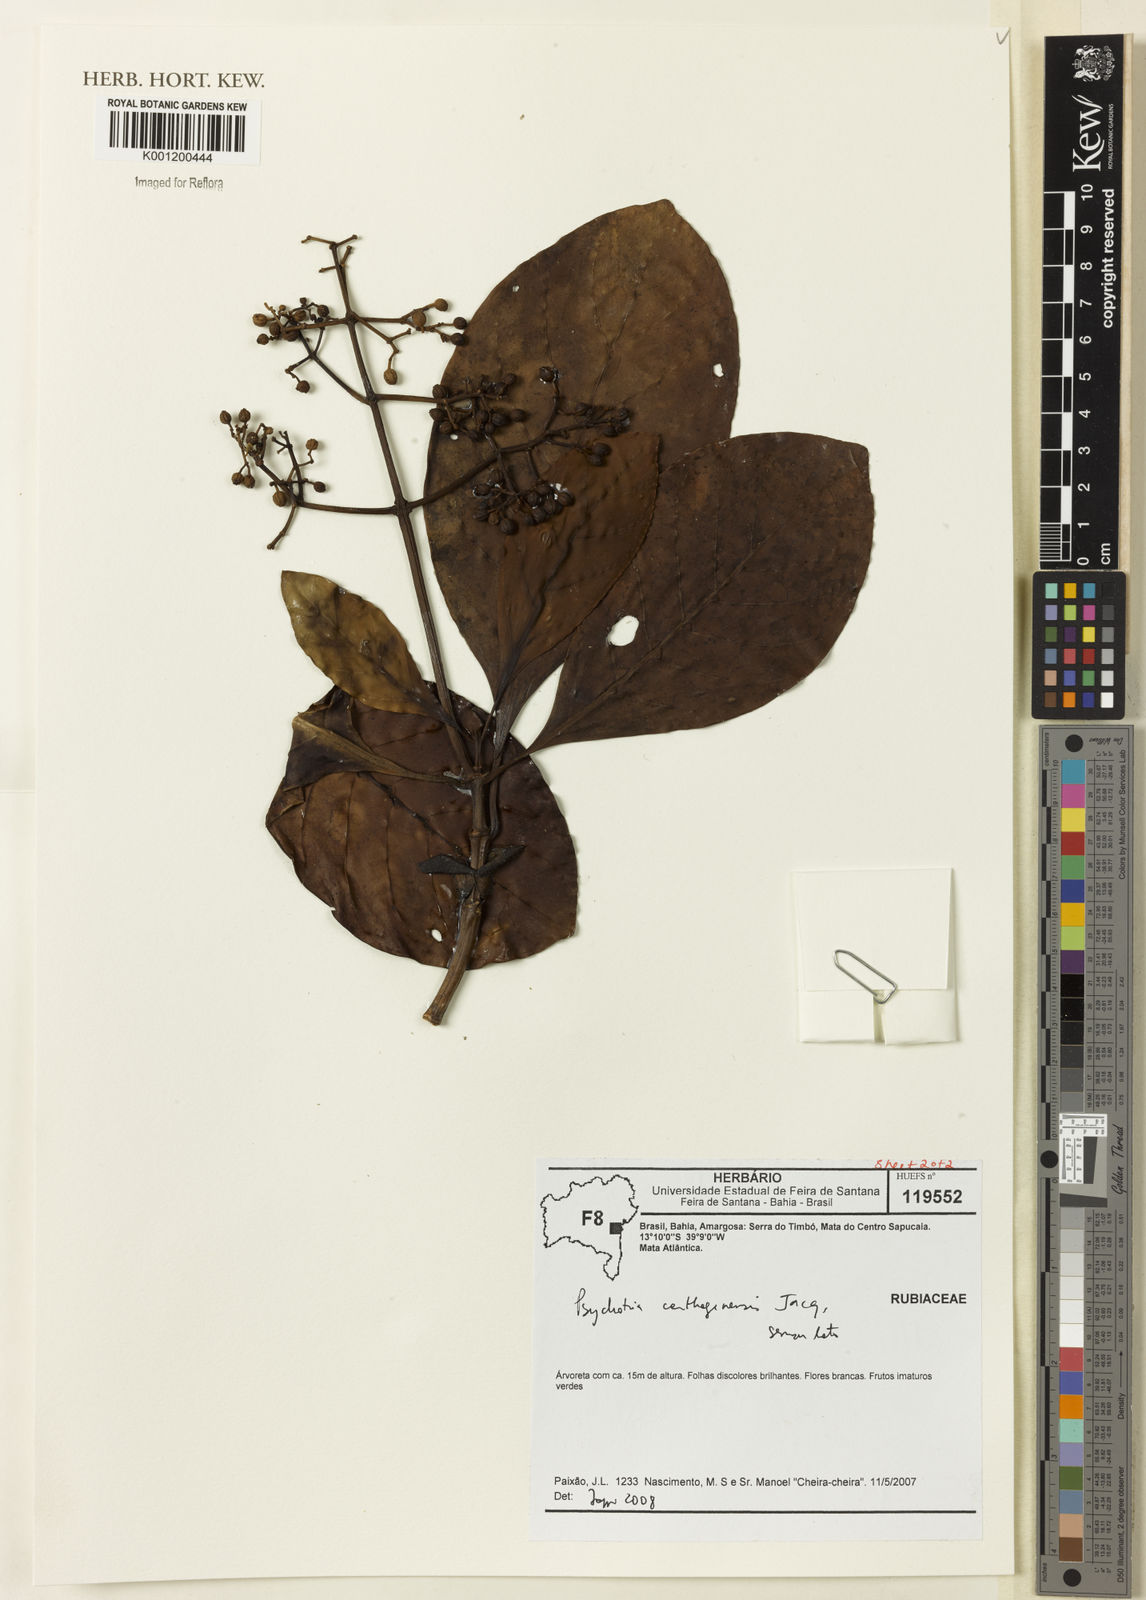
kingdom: Plantae
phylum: Tracheophyta
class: Magnoliopsida
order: Gentianales
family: Rubiaceae
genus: Psychotria
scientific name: Psychotria carthagenensis
